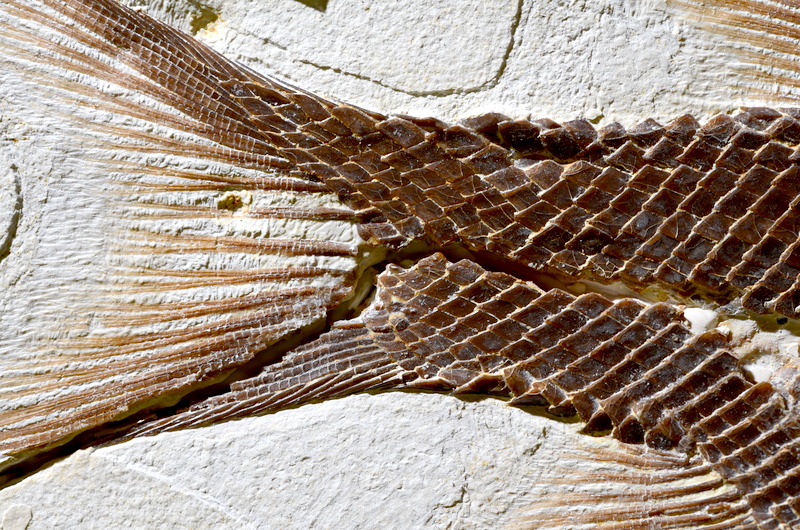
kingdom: Animalia
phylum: Chordata
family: Callipurbeckiidae
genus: Macrosemimimus
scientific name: Macrosemimimus fegerti
